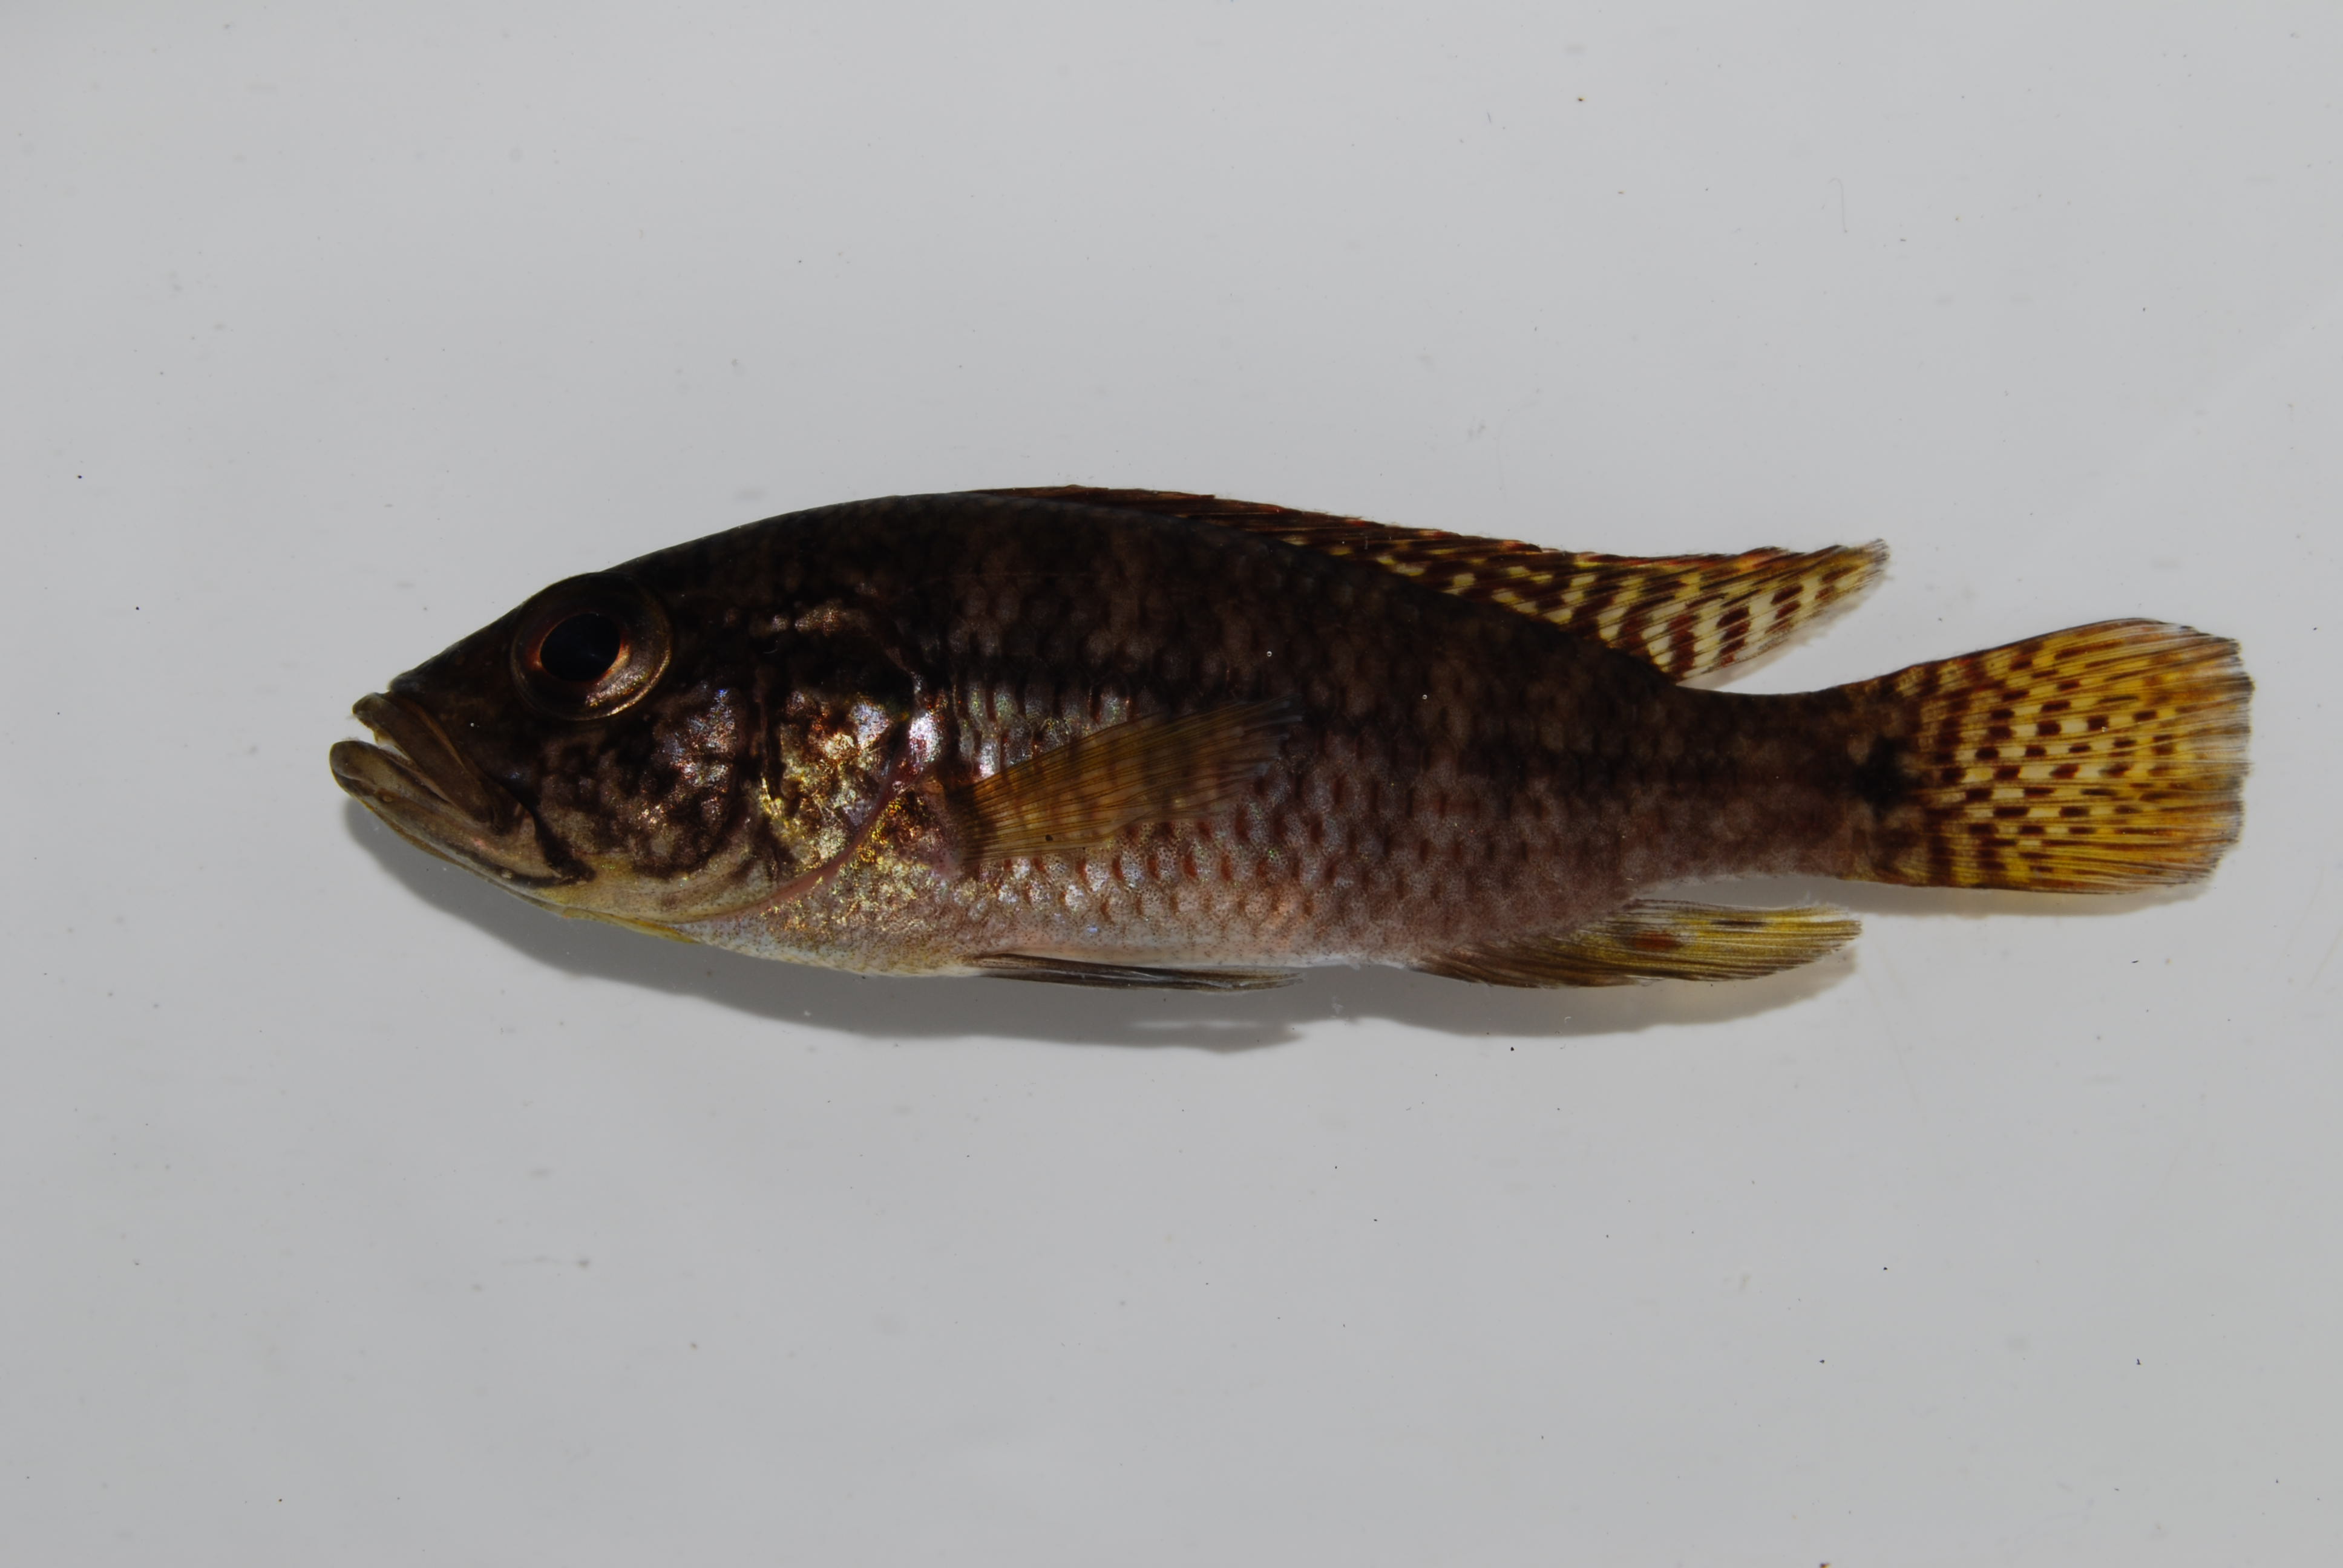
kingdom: Animalia
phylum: Chordata
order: Perciformes
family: Cichlidae
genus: Sargochromis
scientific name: Sargochromis
